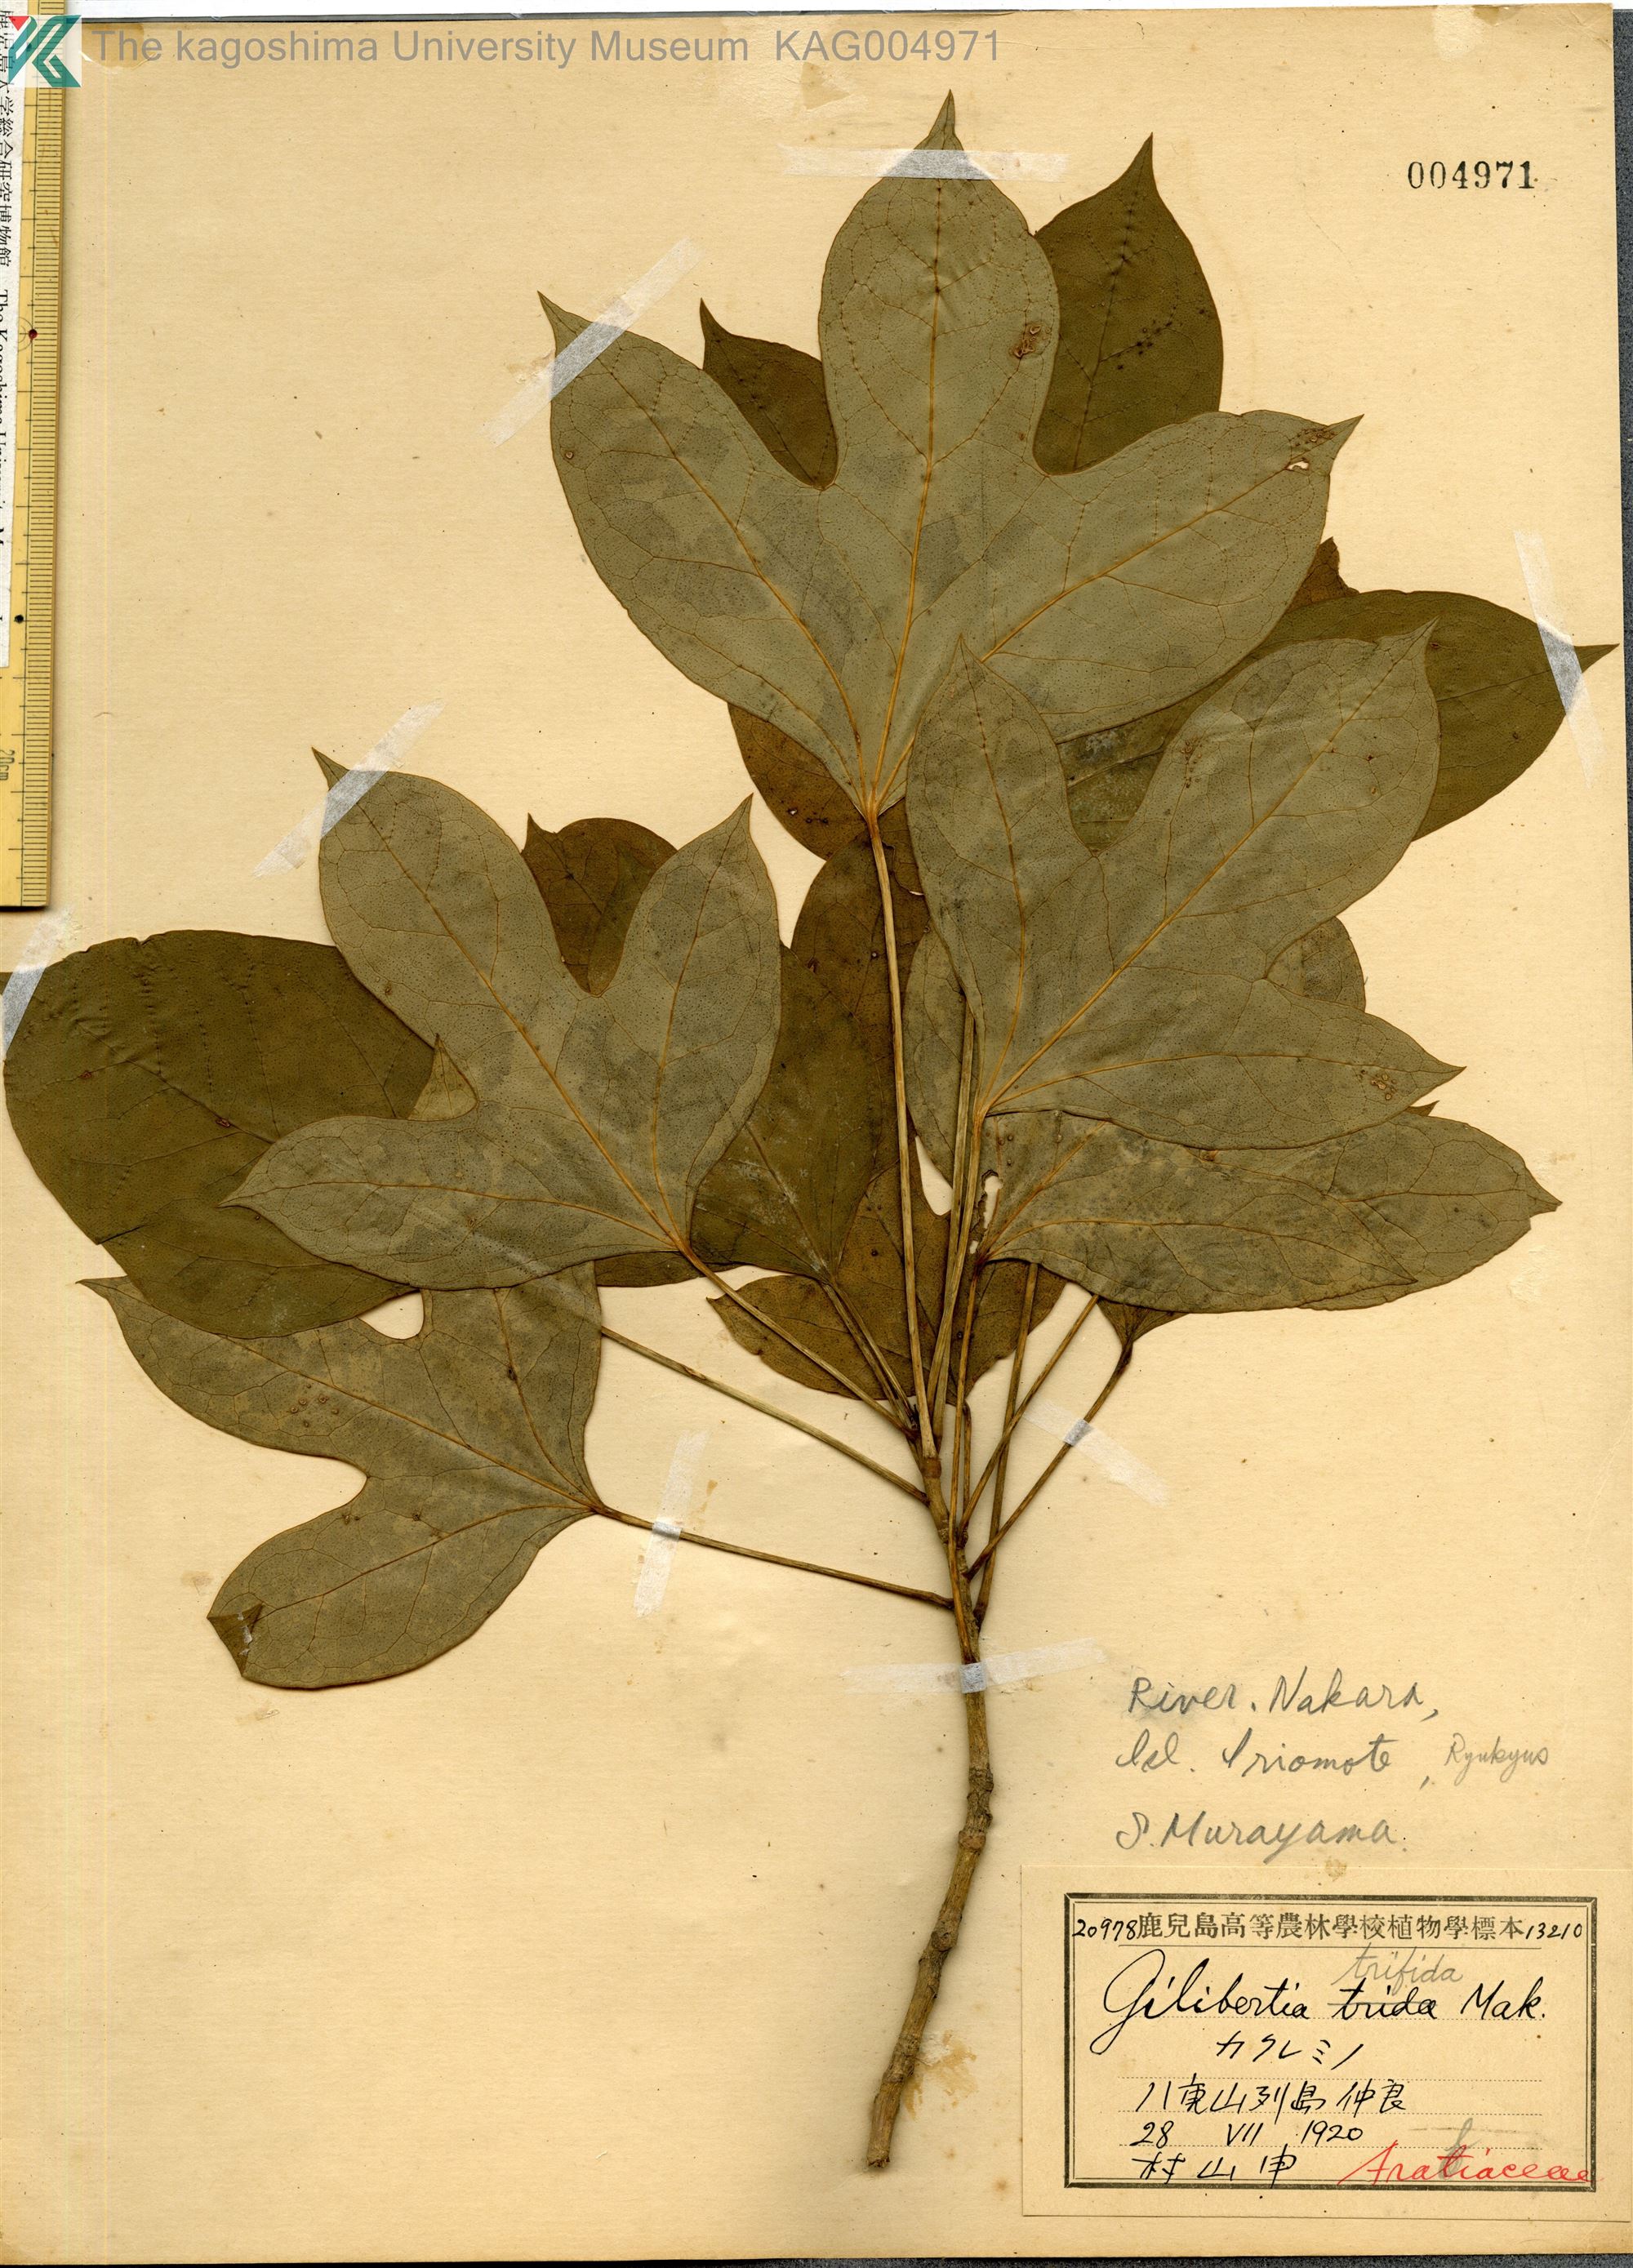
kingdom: Plantae
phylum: Tracheophyta
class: Magnoliopsida
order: Apiales
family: Araliaceae
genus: Dendropanax
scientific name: Dendropanax trifidus
